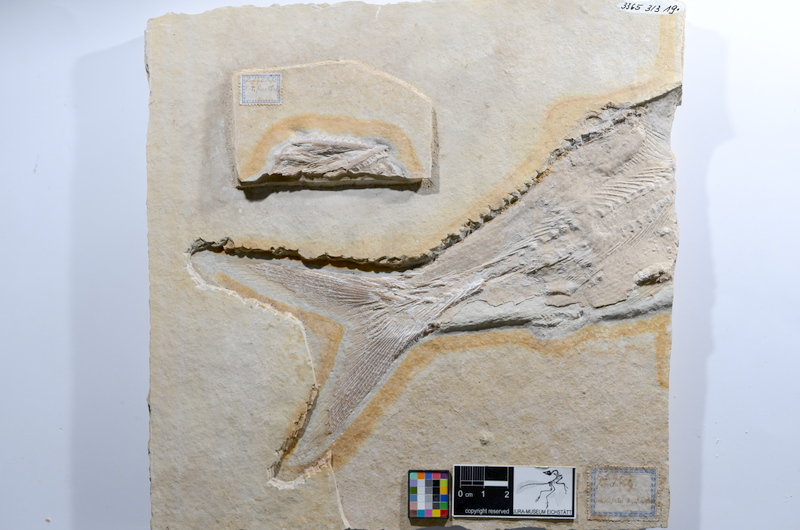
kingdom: Animalia
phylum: Chordata
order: Amiiformes
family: Caturidae
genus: Caturus
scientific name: Caturus furcatus
